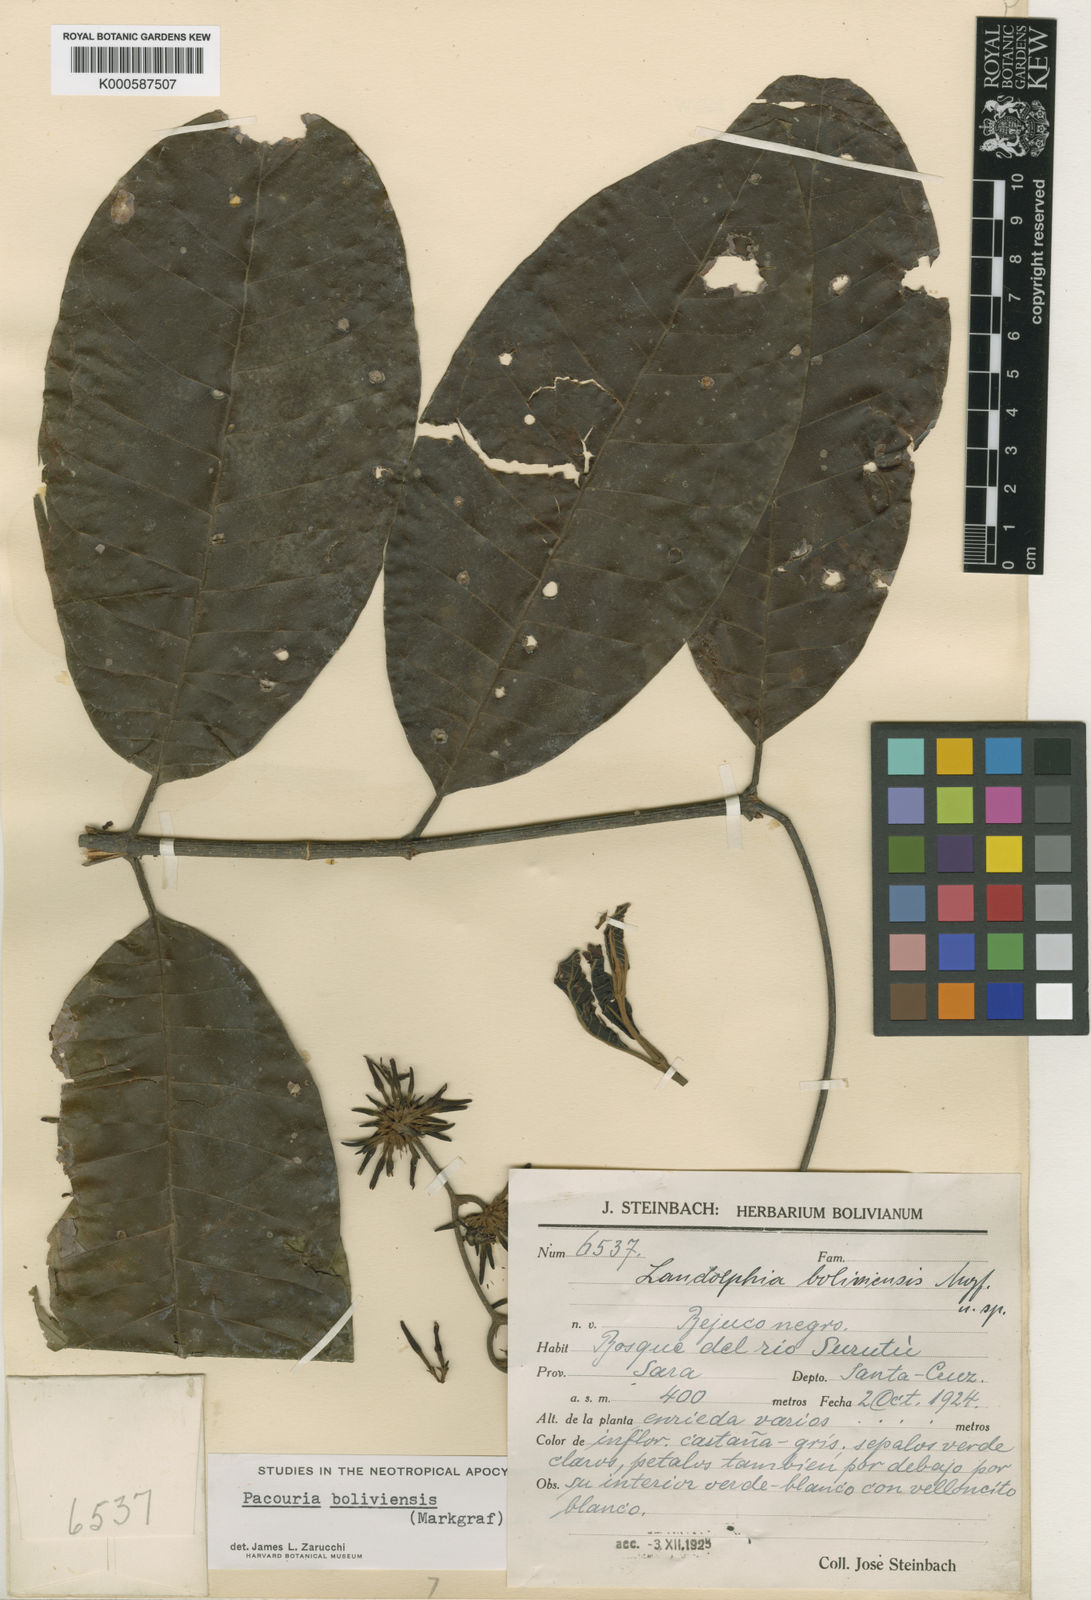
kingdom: Plantae
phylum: Tracheophyta
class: Magnoliopsida
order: Gentianales
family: Apocynaceae
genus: Pacouria
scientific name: Pacouria boliviensis
